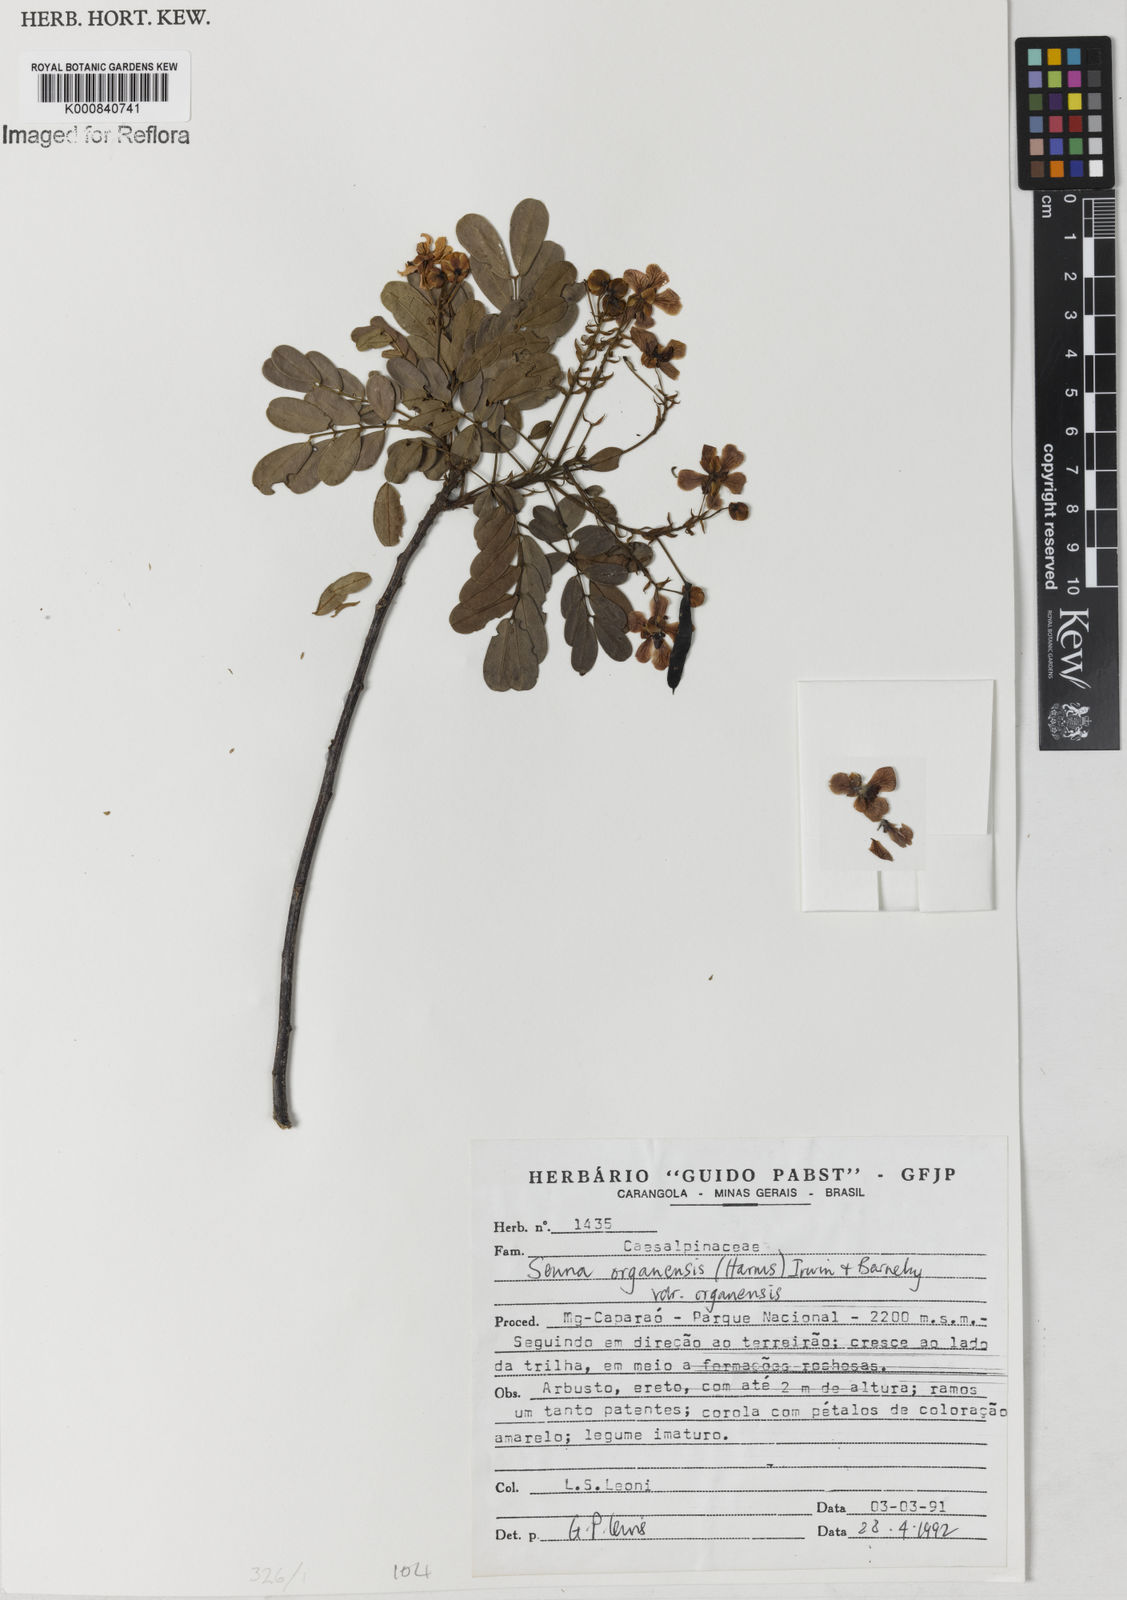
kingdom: Plantae
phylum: Tracheophyta
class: Magnoliopsida
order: Fabales
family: Fabaceae
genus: Senna
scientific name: Senna organensis
